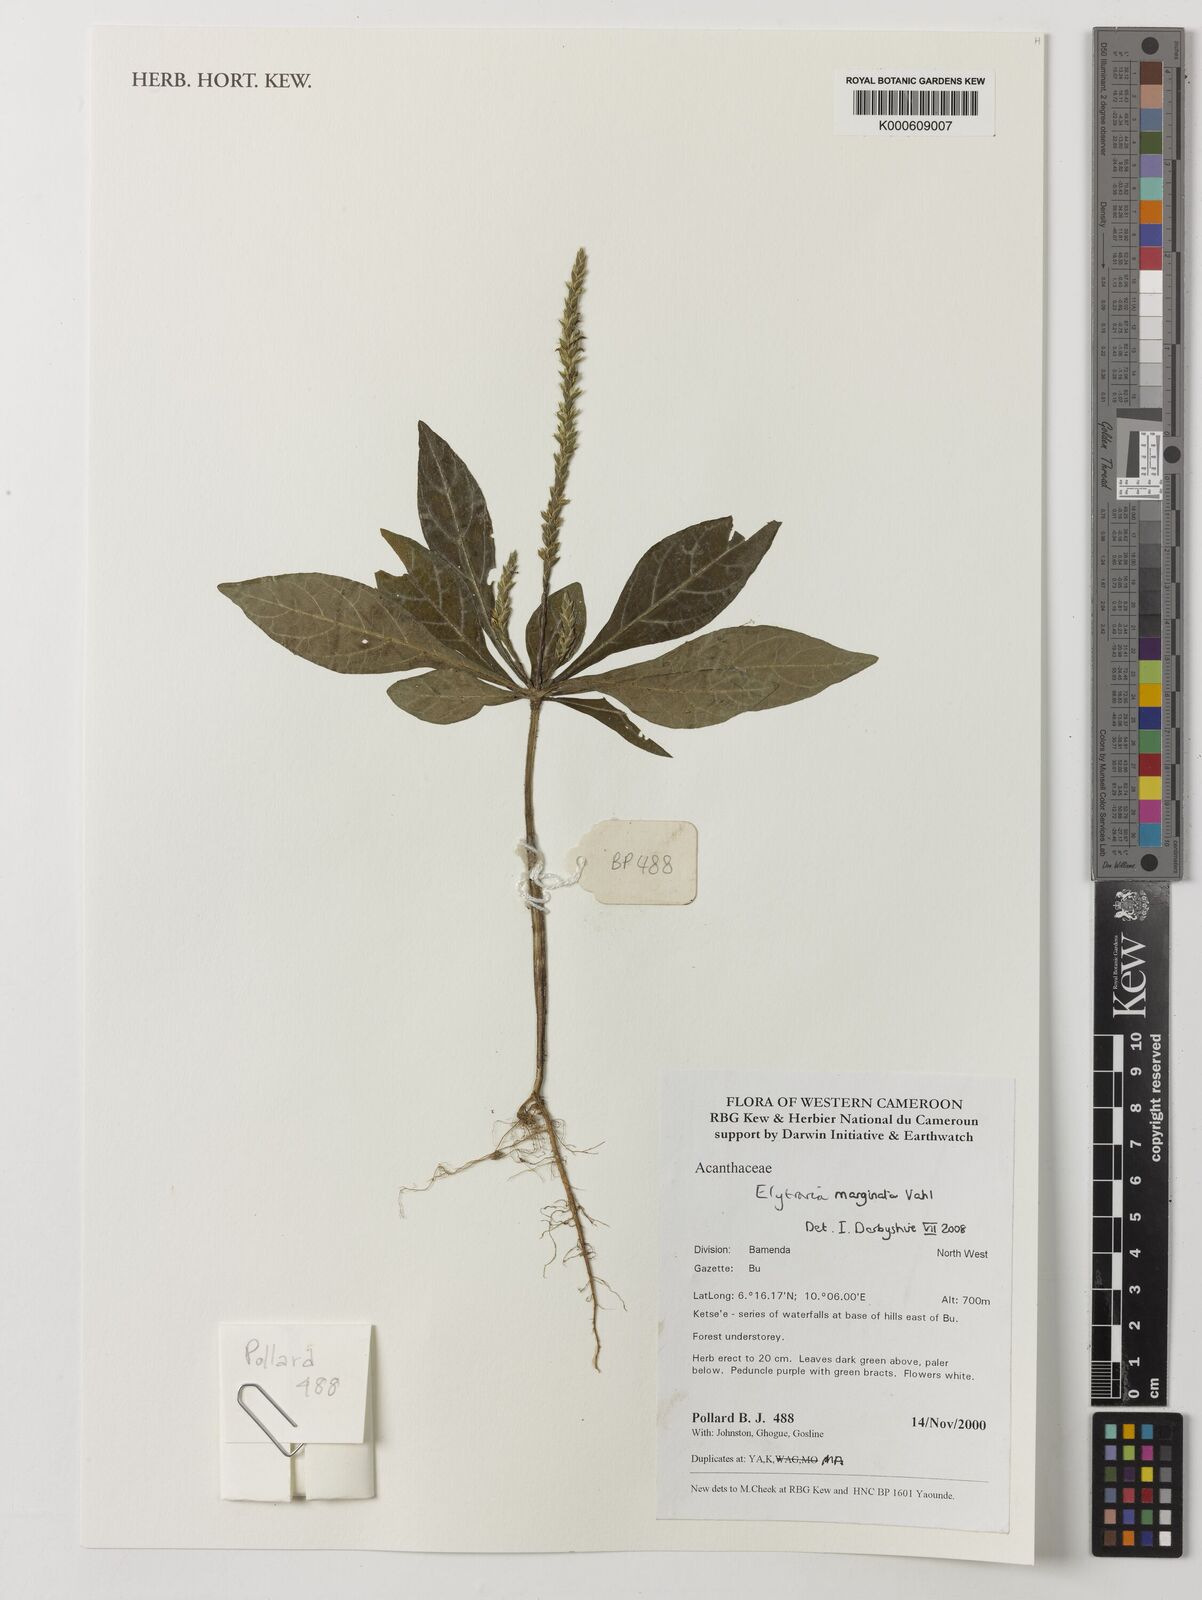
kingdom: Plantae
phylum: Tracheophyta
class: Magnoliopsida
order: Lamiales
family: Acanthaceae
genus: Elytraria
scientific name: Elytraria marginata
